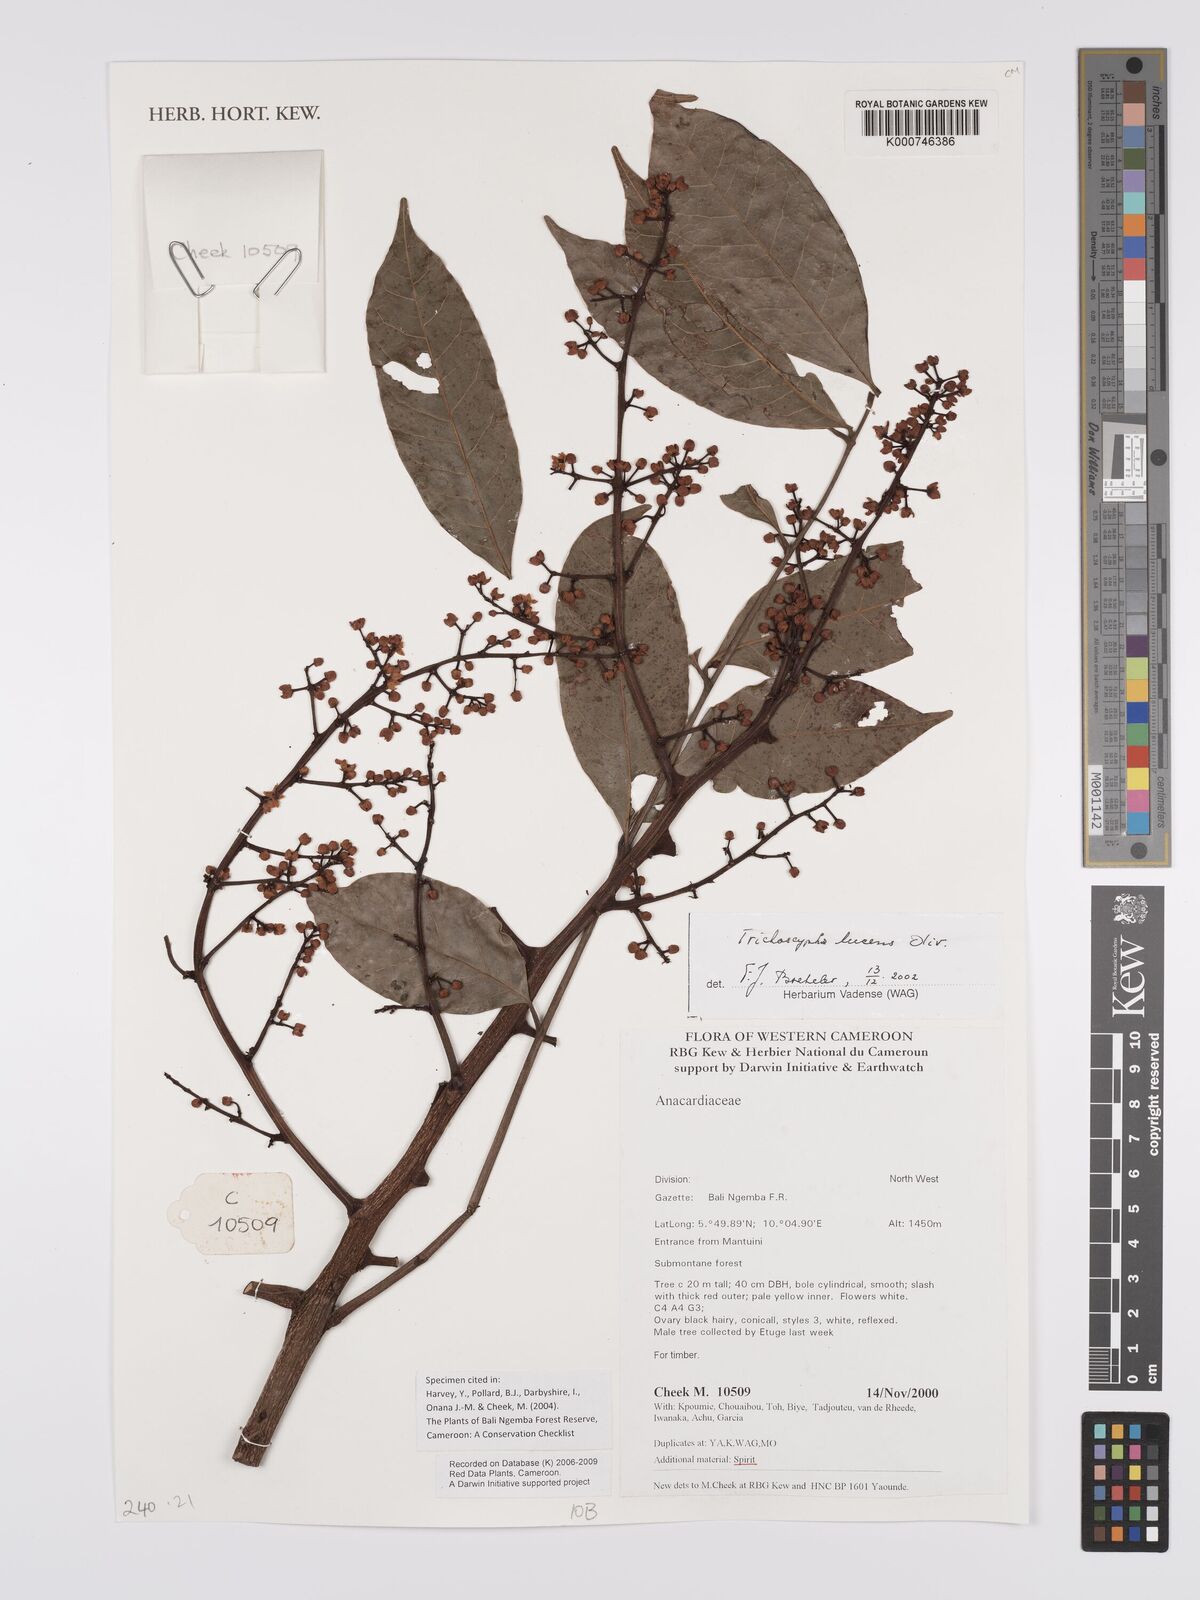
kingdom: Plantae
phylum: Tracheophyta
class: Magnoliopsida
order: Sapindales
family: Anacardiaceae
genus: Trichoscypha
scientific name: Trichoscypha lucens
